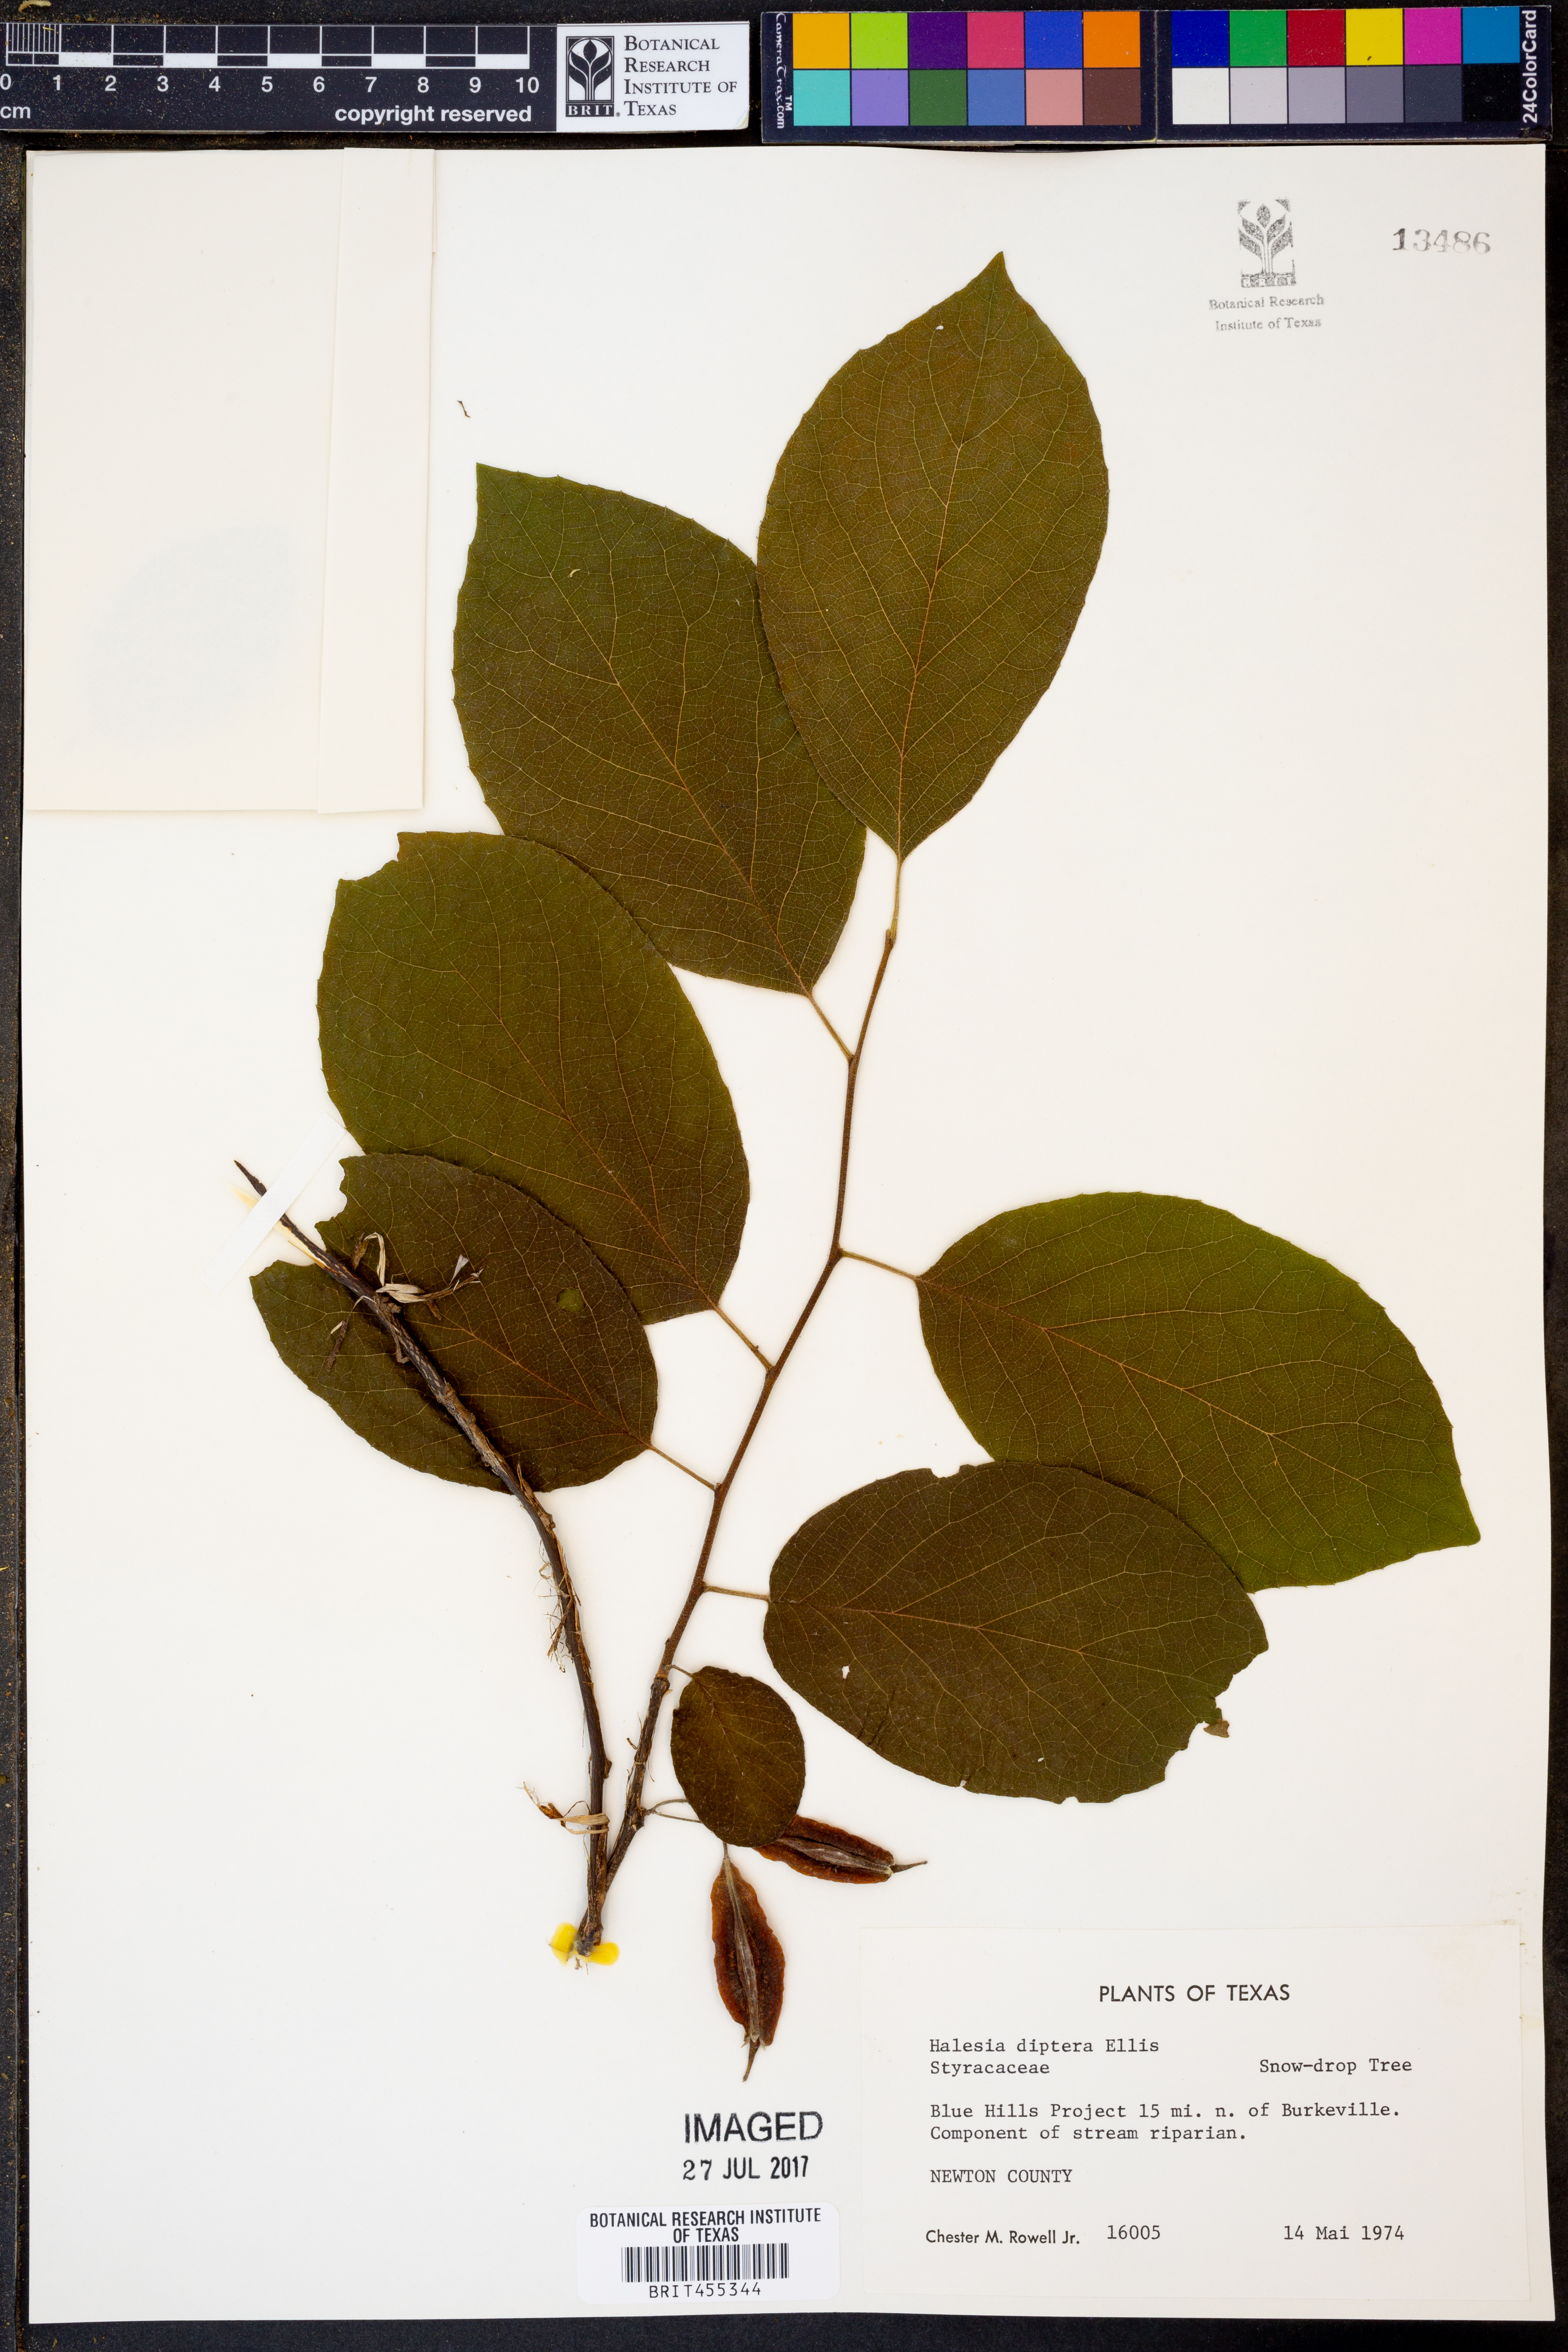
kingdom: Plantae
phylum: Tracheophyta
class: Magnoliopsida
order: Ericales
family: Styracaceae
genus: Halesia
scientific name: Halesia diptera
